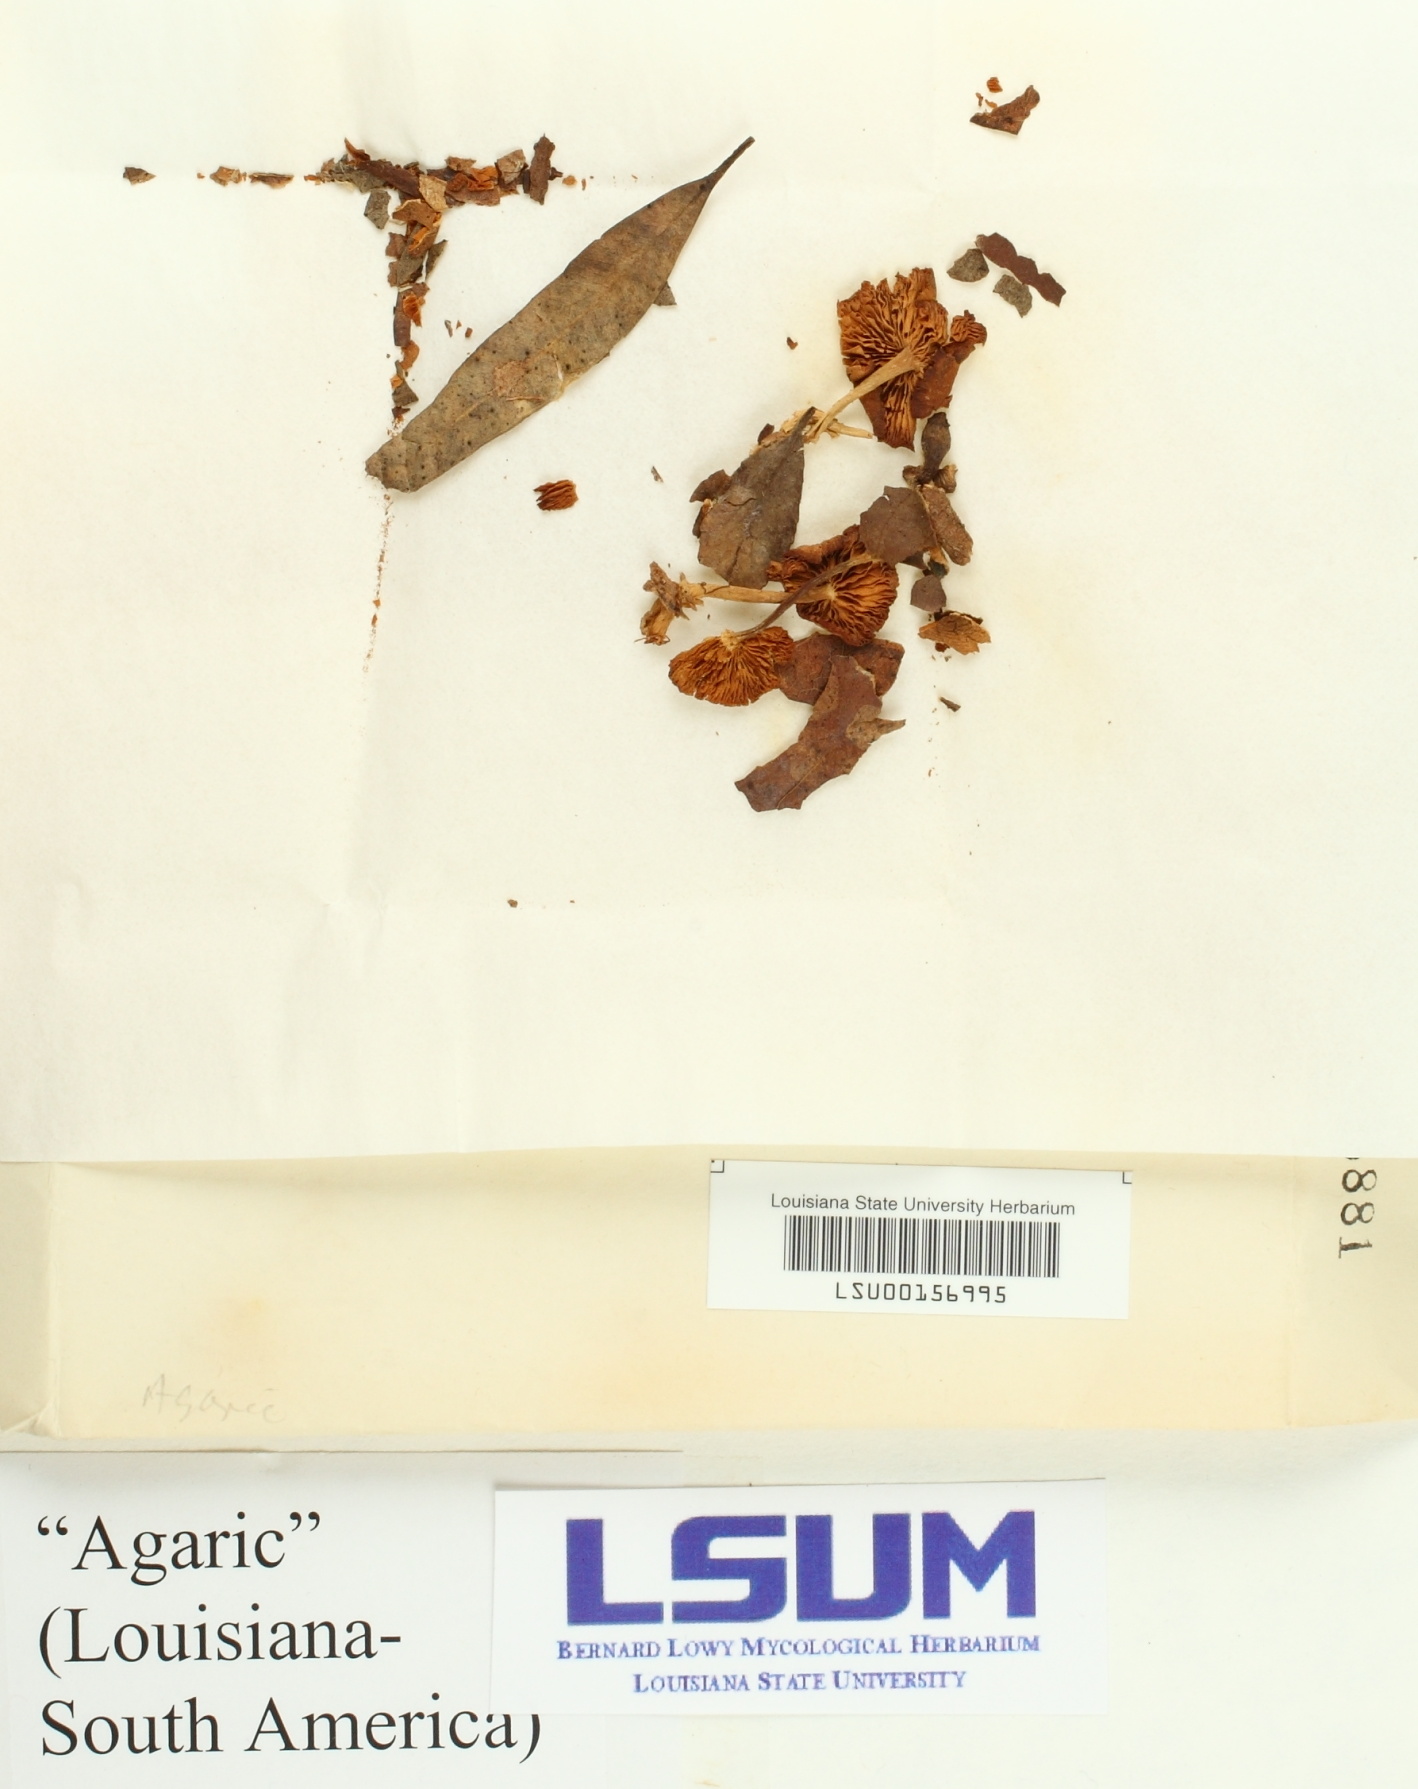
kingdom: Fungi
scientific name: Fungi
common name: Fungi
